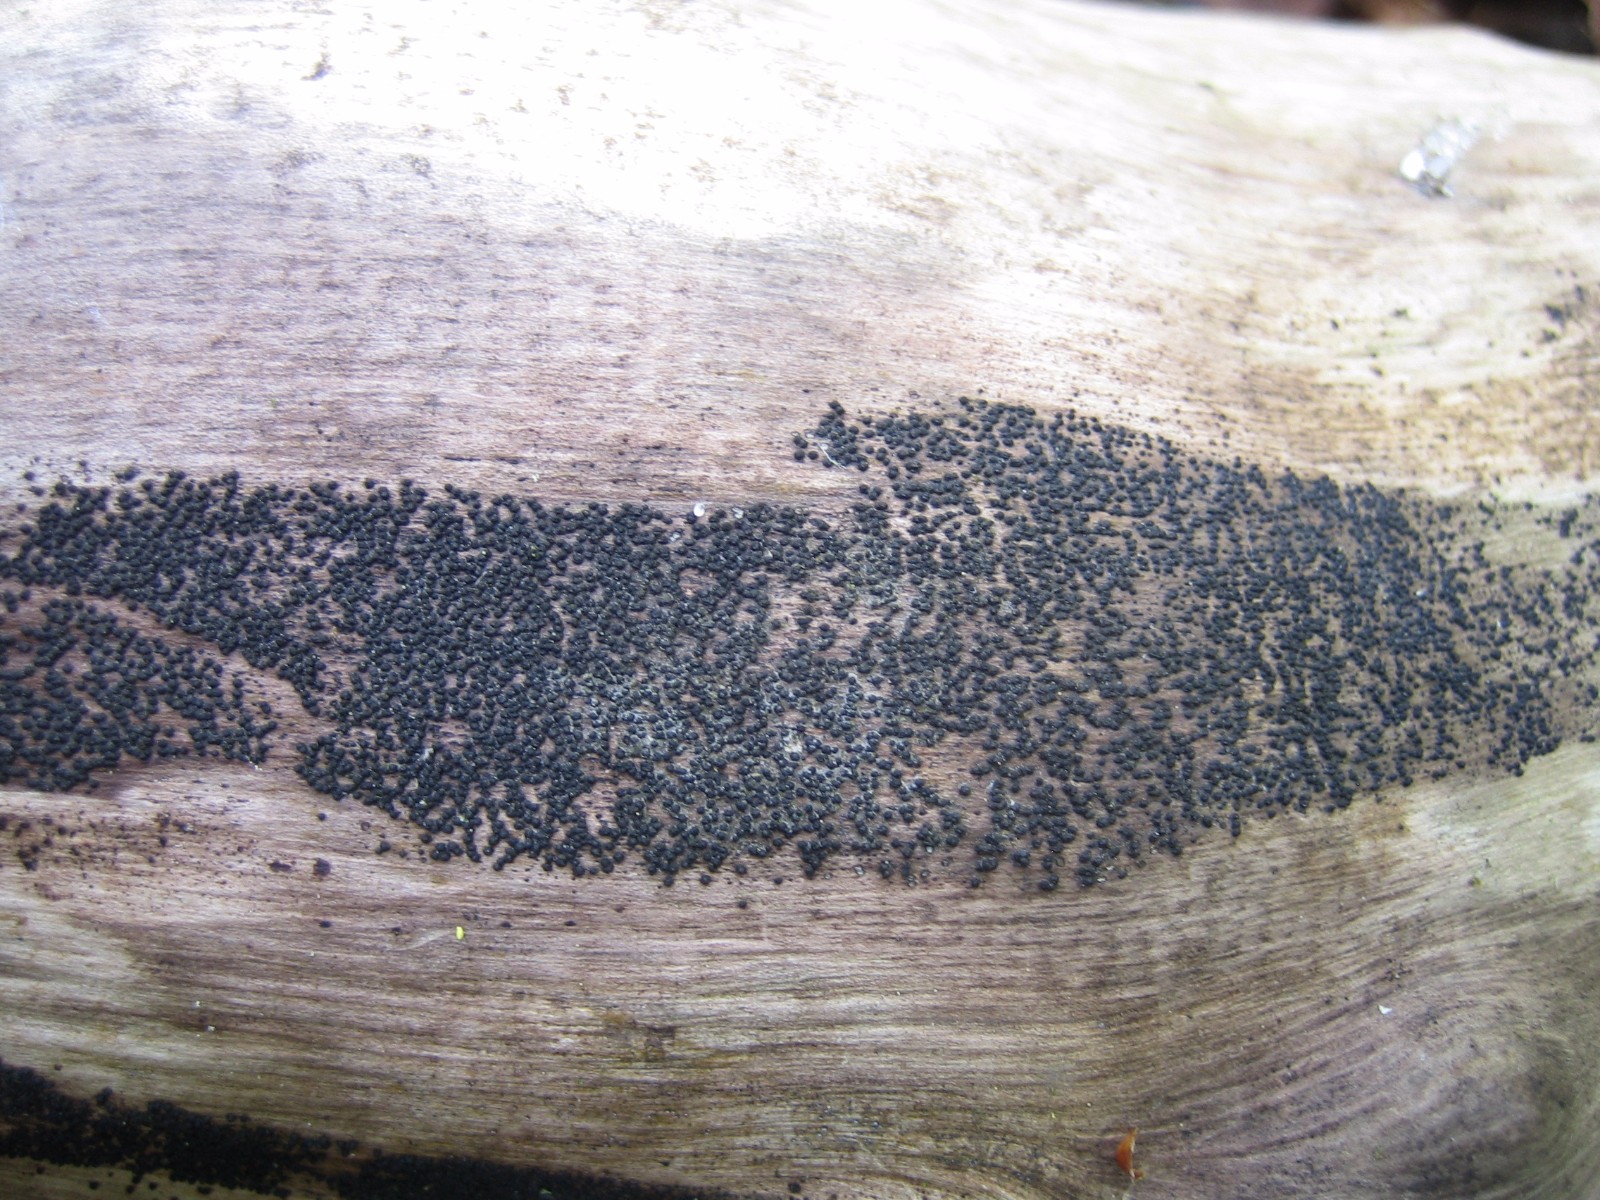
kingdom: Fungi
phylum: Ascomycota
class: Dothideomycetes
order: Pleosporales
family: Melanommataceae
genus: Melanomma
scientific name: Melanomma pulvis-pyrius
